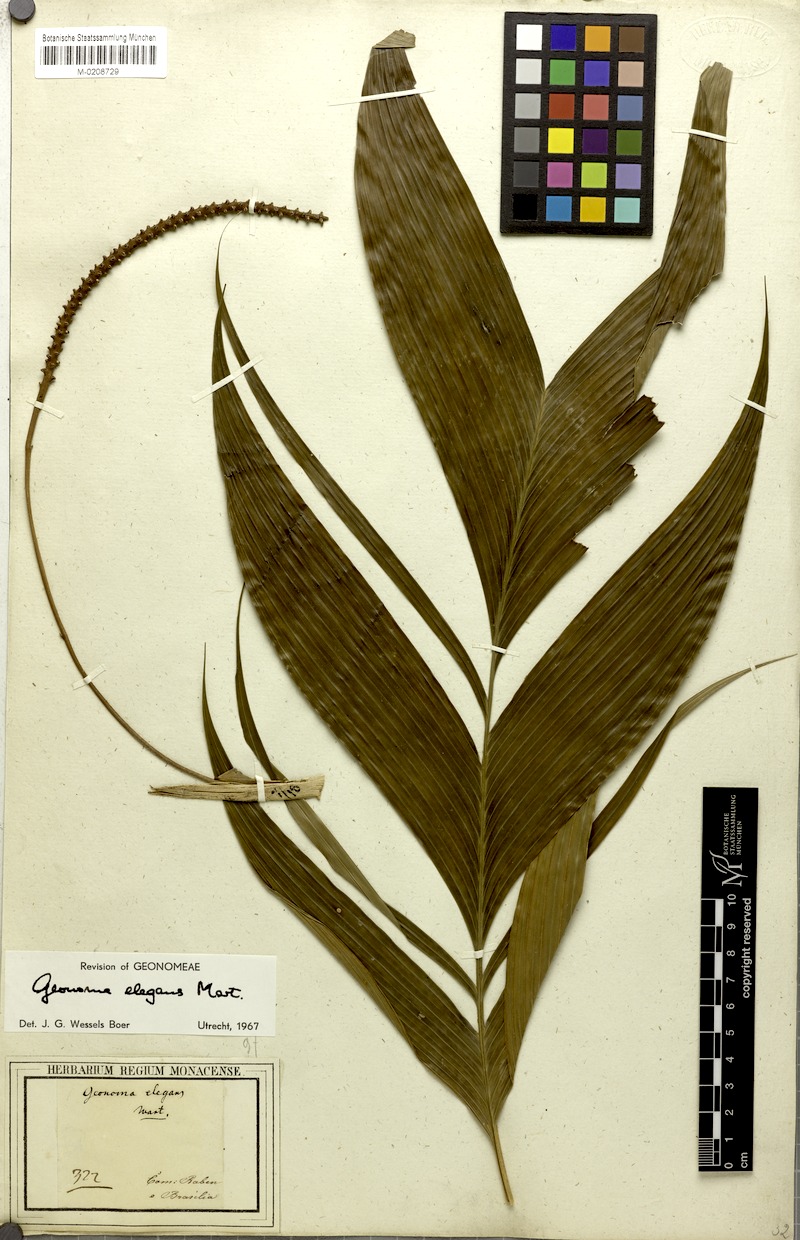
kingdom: Plantae
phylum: Tracheophyta
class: Liliopsida
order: Arecales
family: Arecaceae
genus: Geonoma
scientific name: Geonoma elegans
